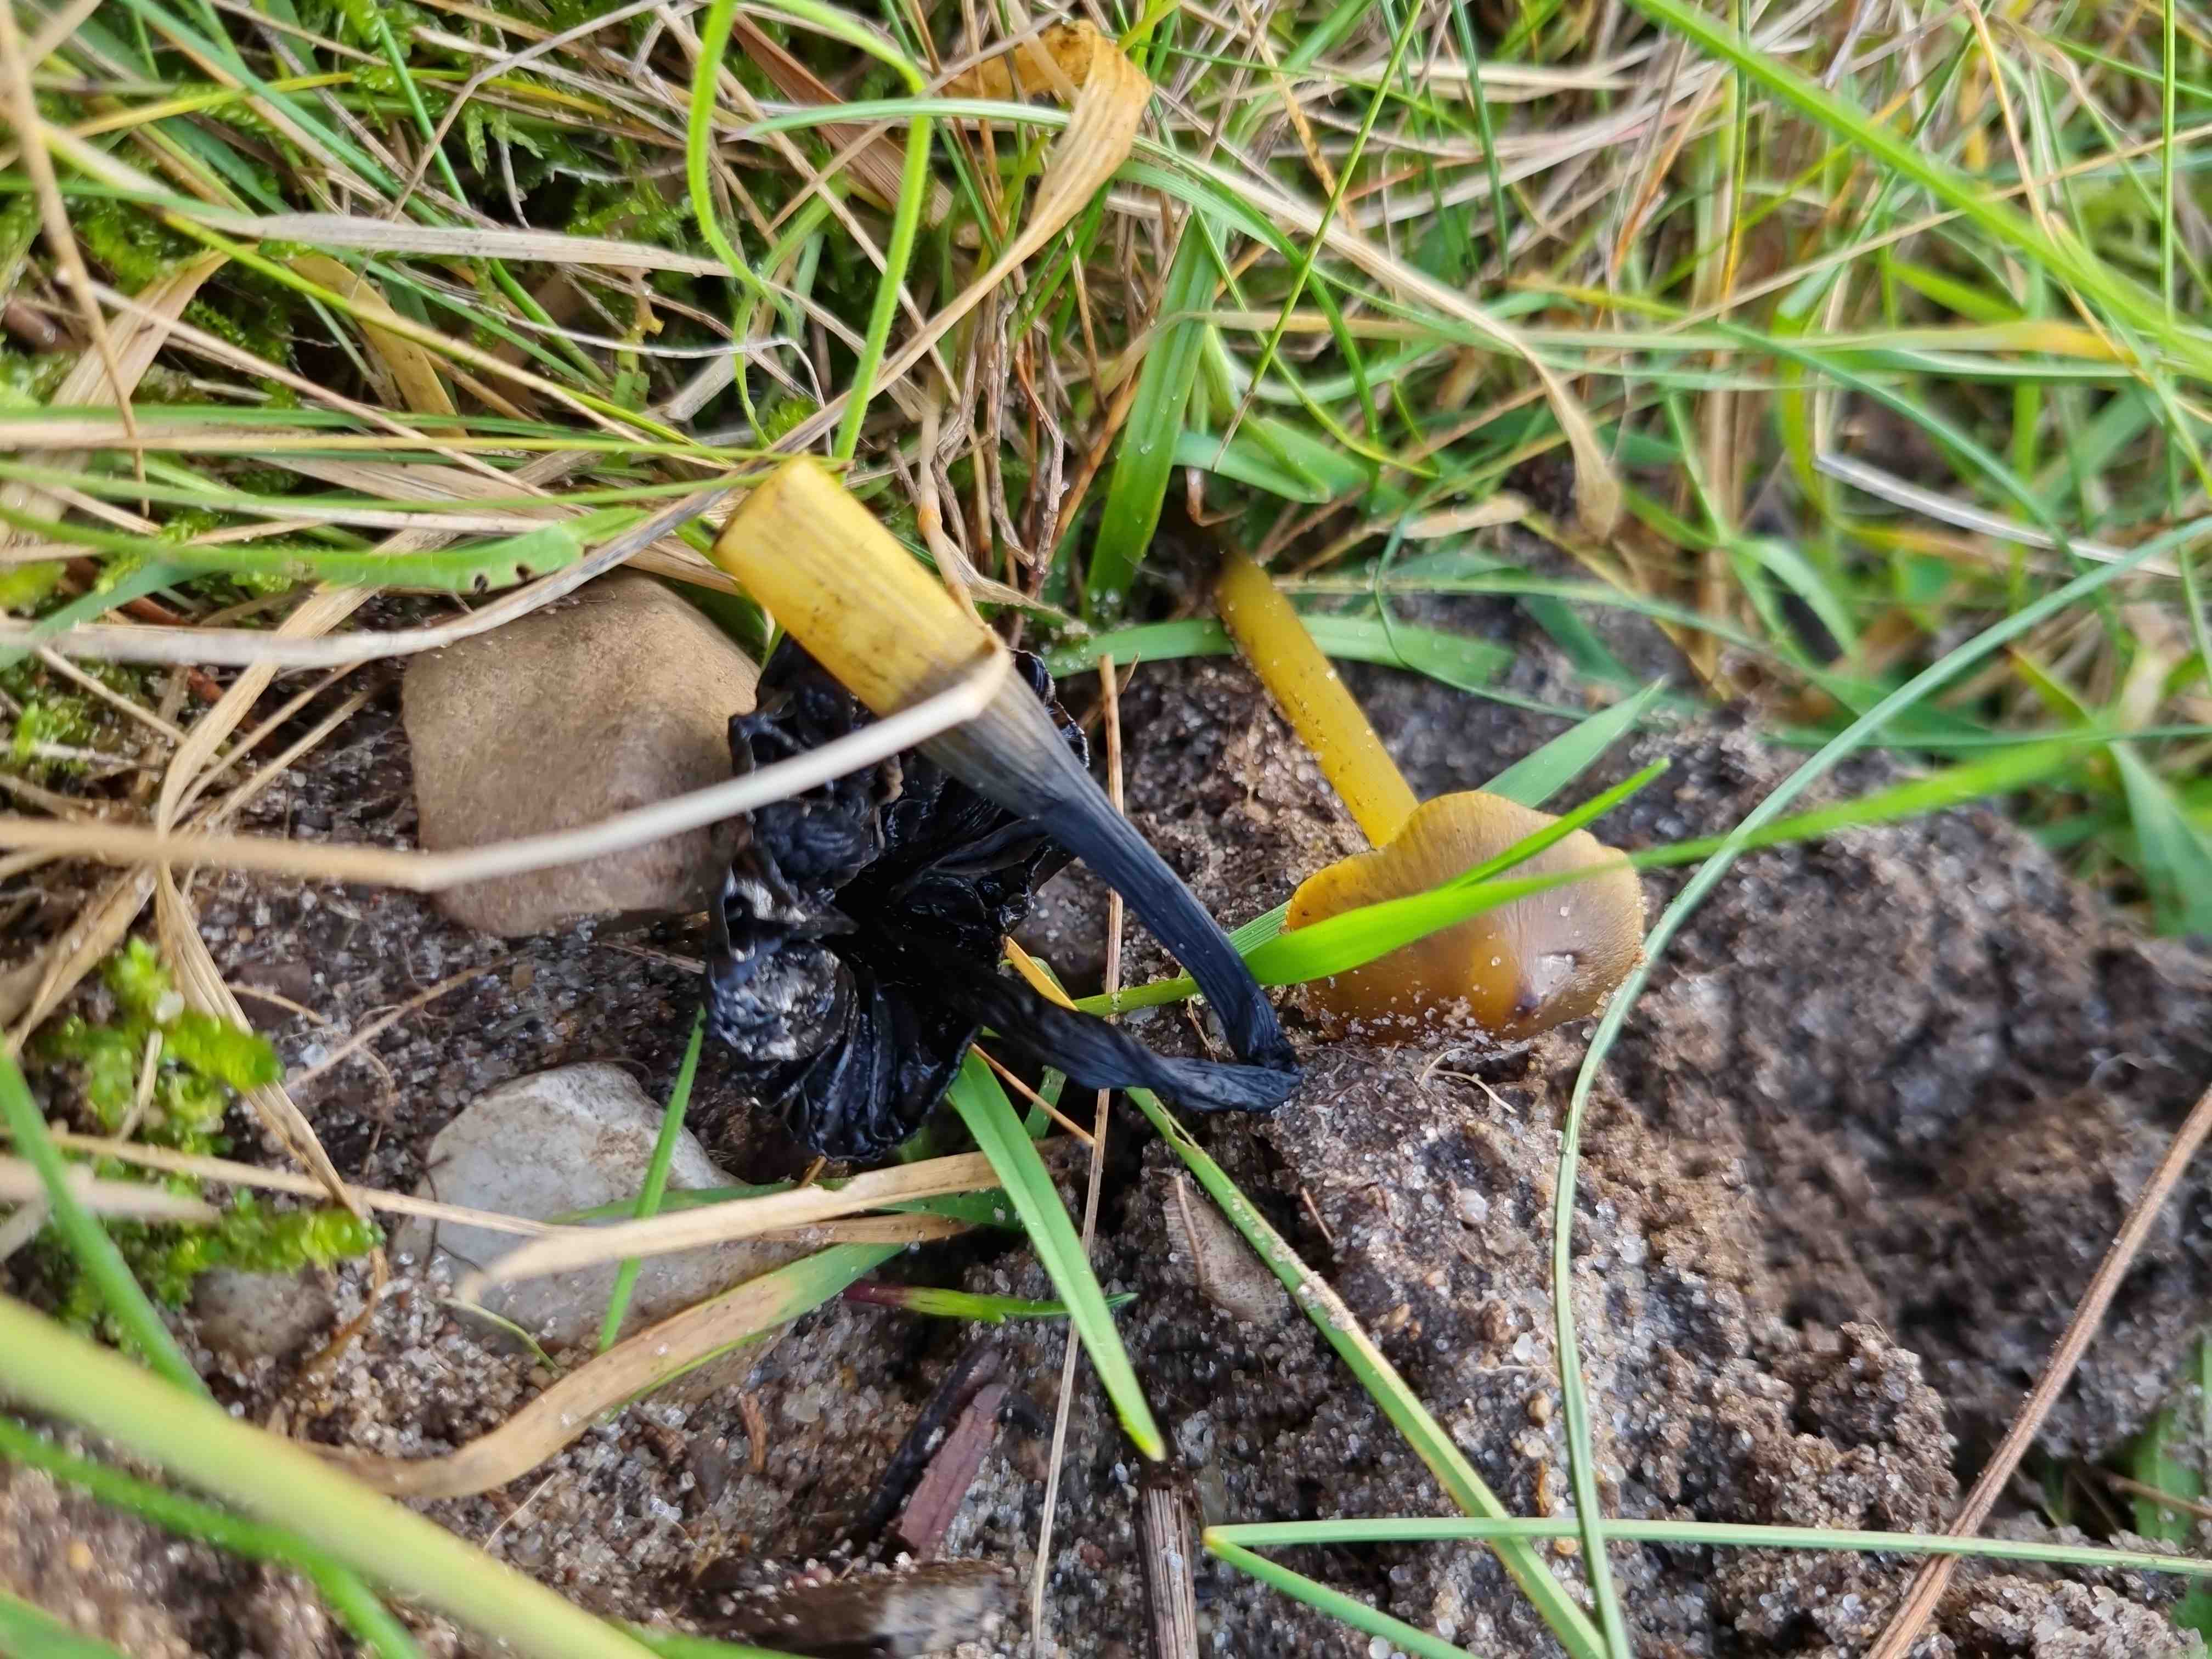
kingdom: Fungi
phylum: Basidiomycota
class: Agaricomycetes
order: Agaricales
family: Hygrophoraceae
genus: Hygrocybe
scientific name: Hygrocybe conica
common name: kegle-vokshat
